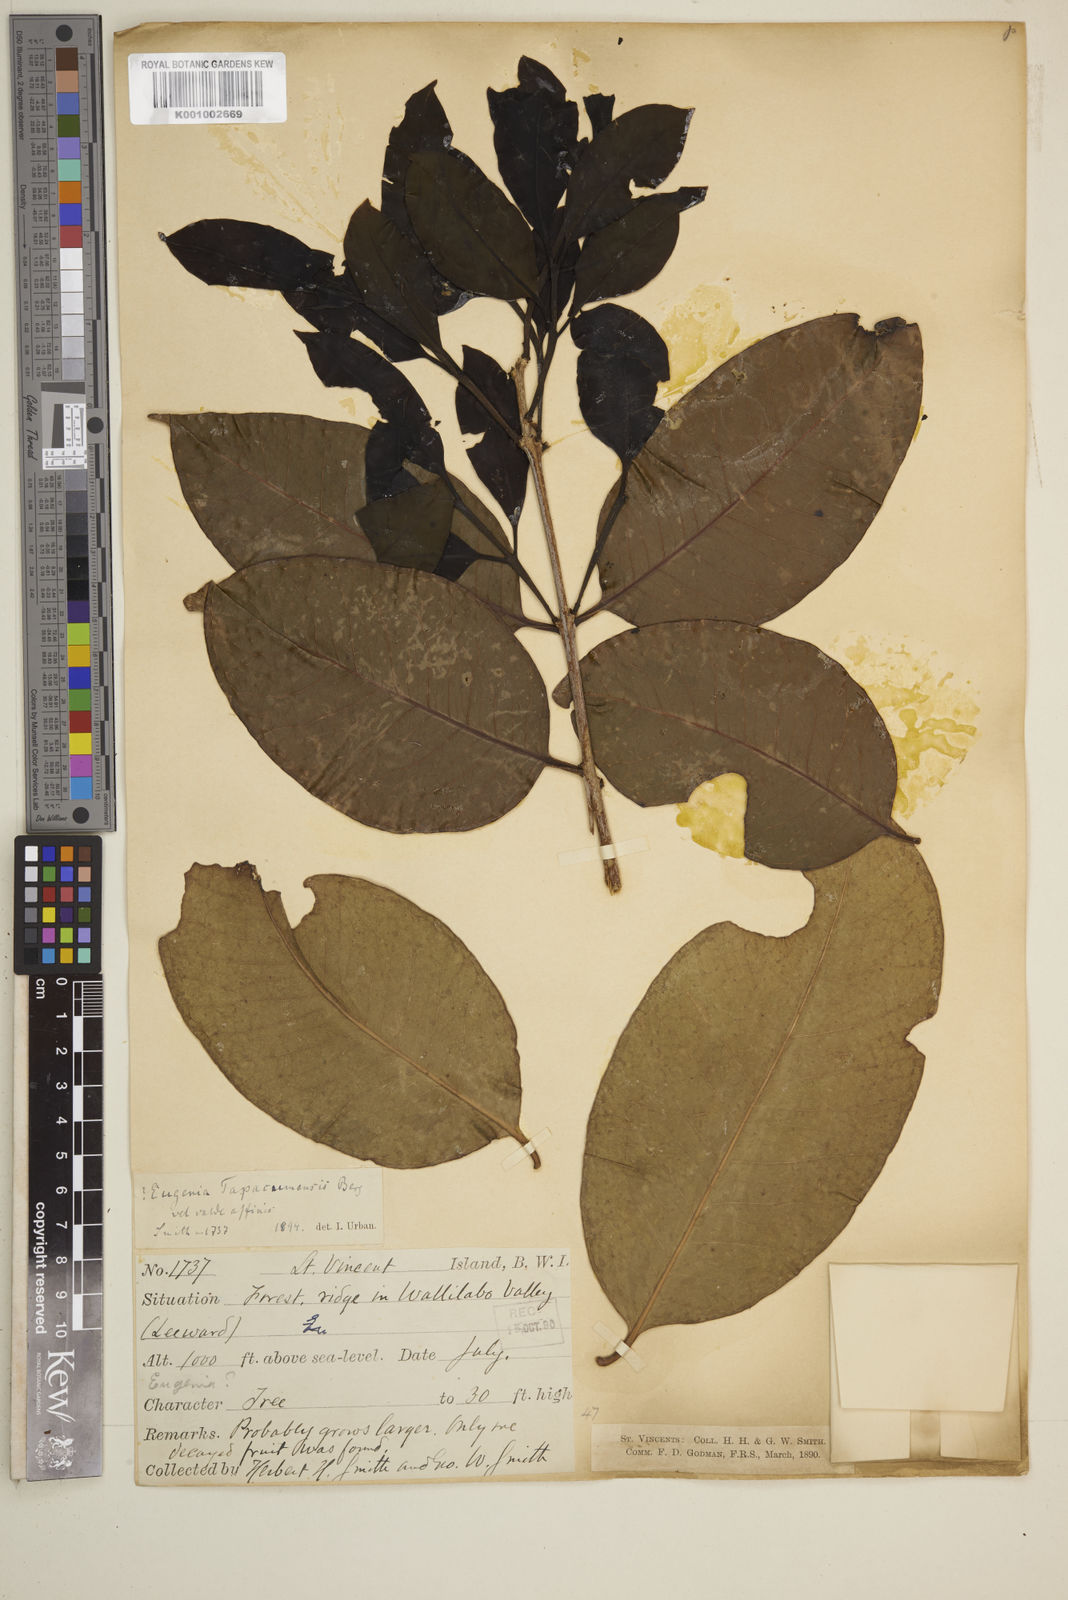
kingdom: Plantae
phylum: Tracheophyta
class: Magnoliopsida
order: Myrtales
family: Myrtaceae
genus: Eugenia
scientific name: Eugenia tapacumensis
